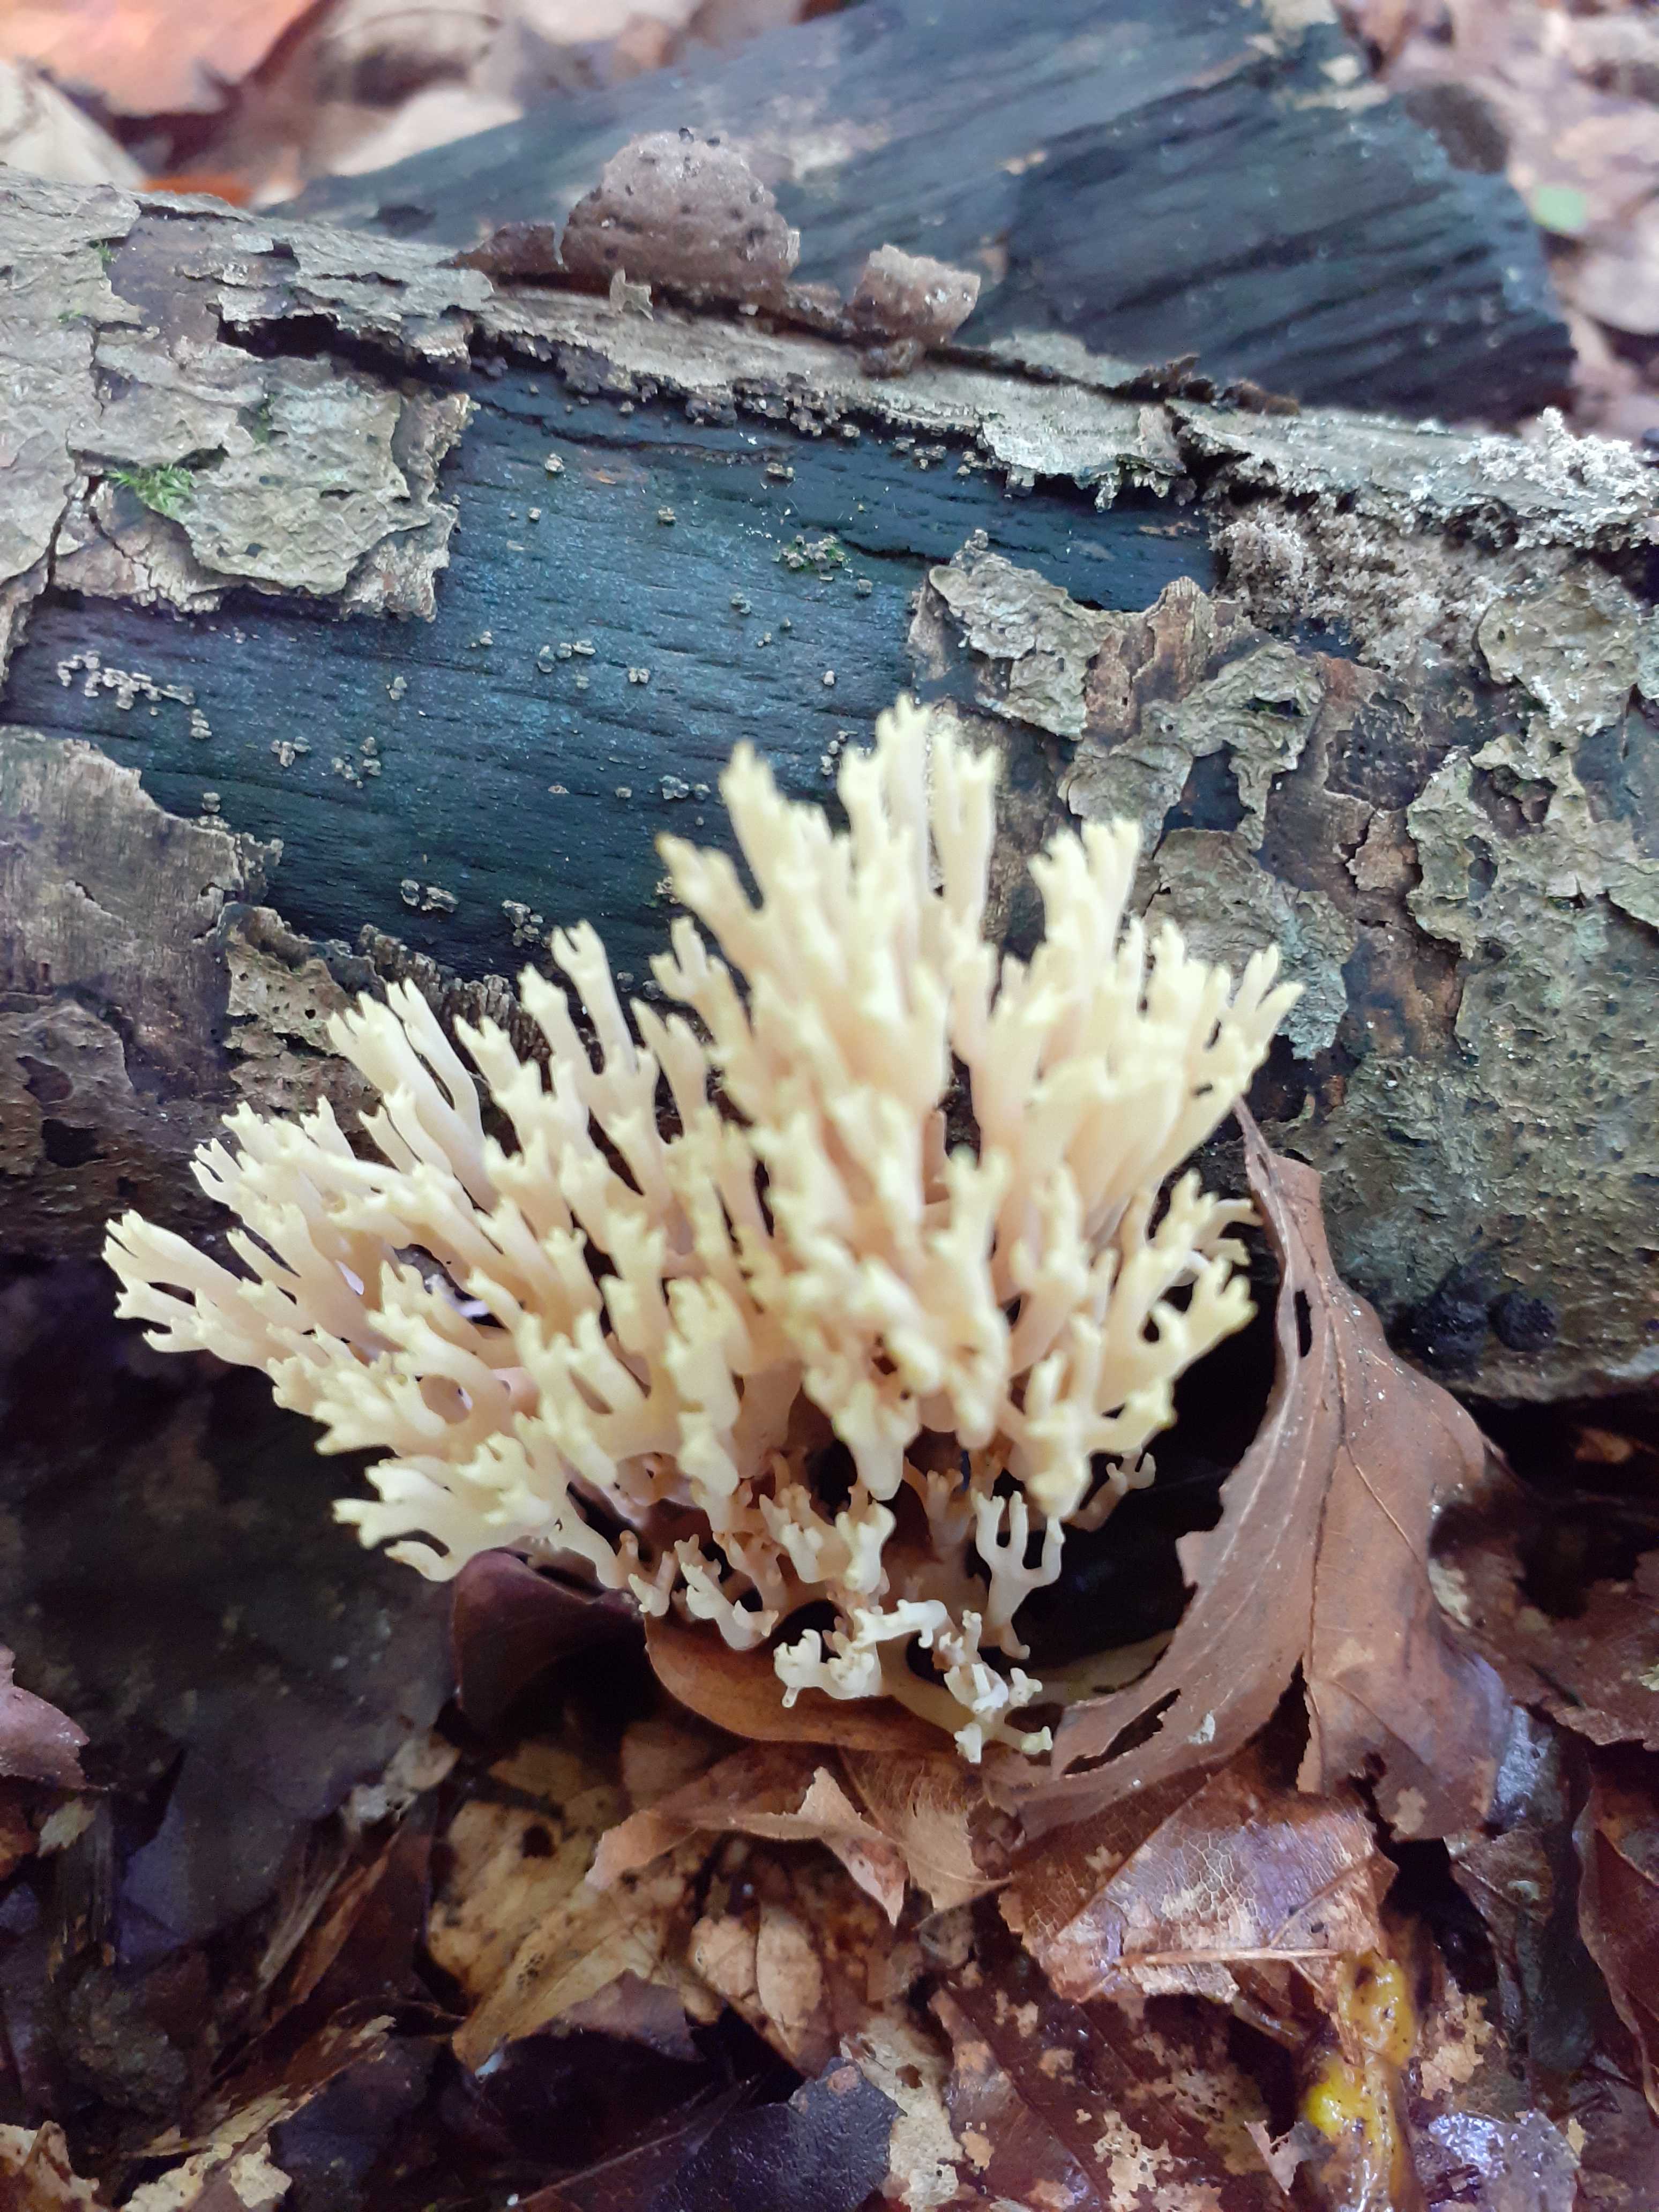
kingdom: Fungi
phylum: Basidiomycota
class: Agaricomycetes
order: Gomphales
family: Gomphaceae
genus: Ramaria
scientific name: Ramaria stricta
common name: rank koralsvamp
